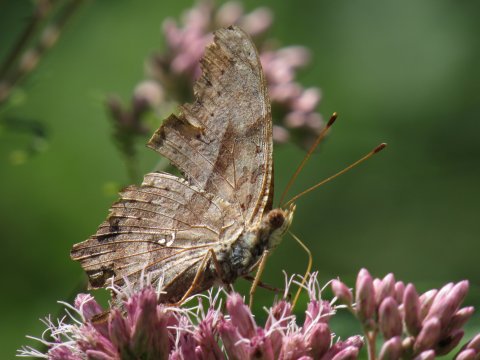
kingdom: Animalia
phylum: Arthropoda
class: Insecta
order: Lepidoptera
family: Nymphalidae
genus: Polygonia
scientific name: Polygonia interrogationis
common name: Question Mark
